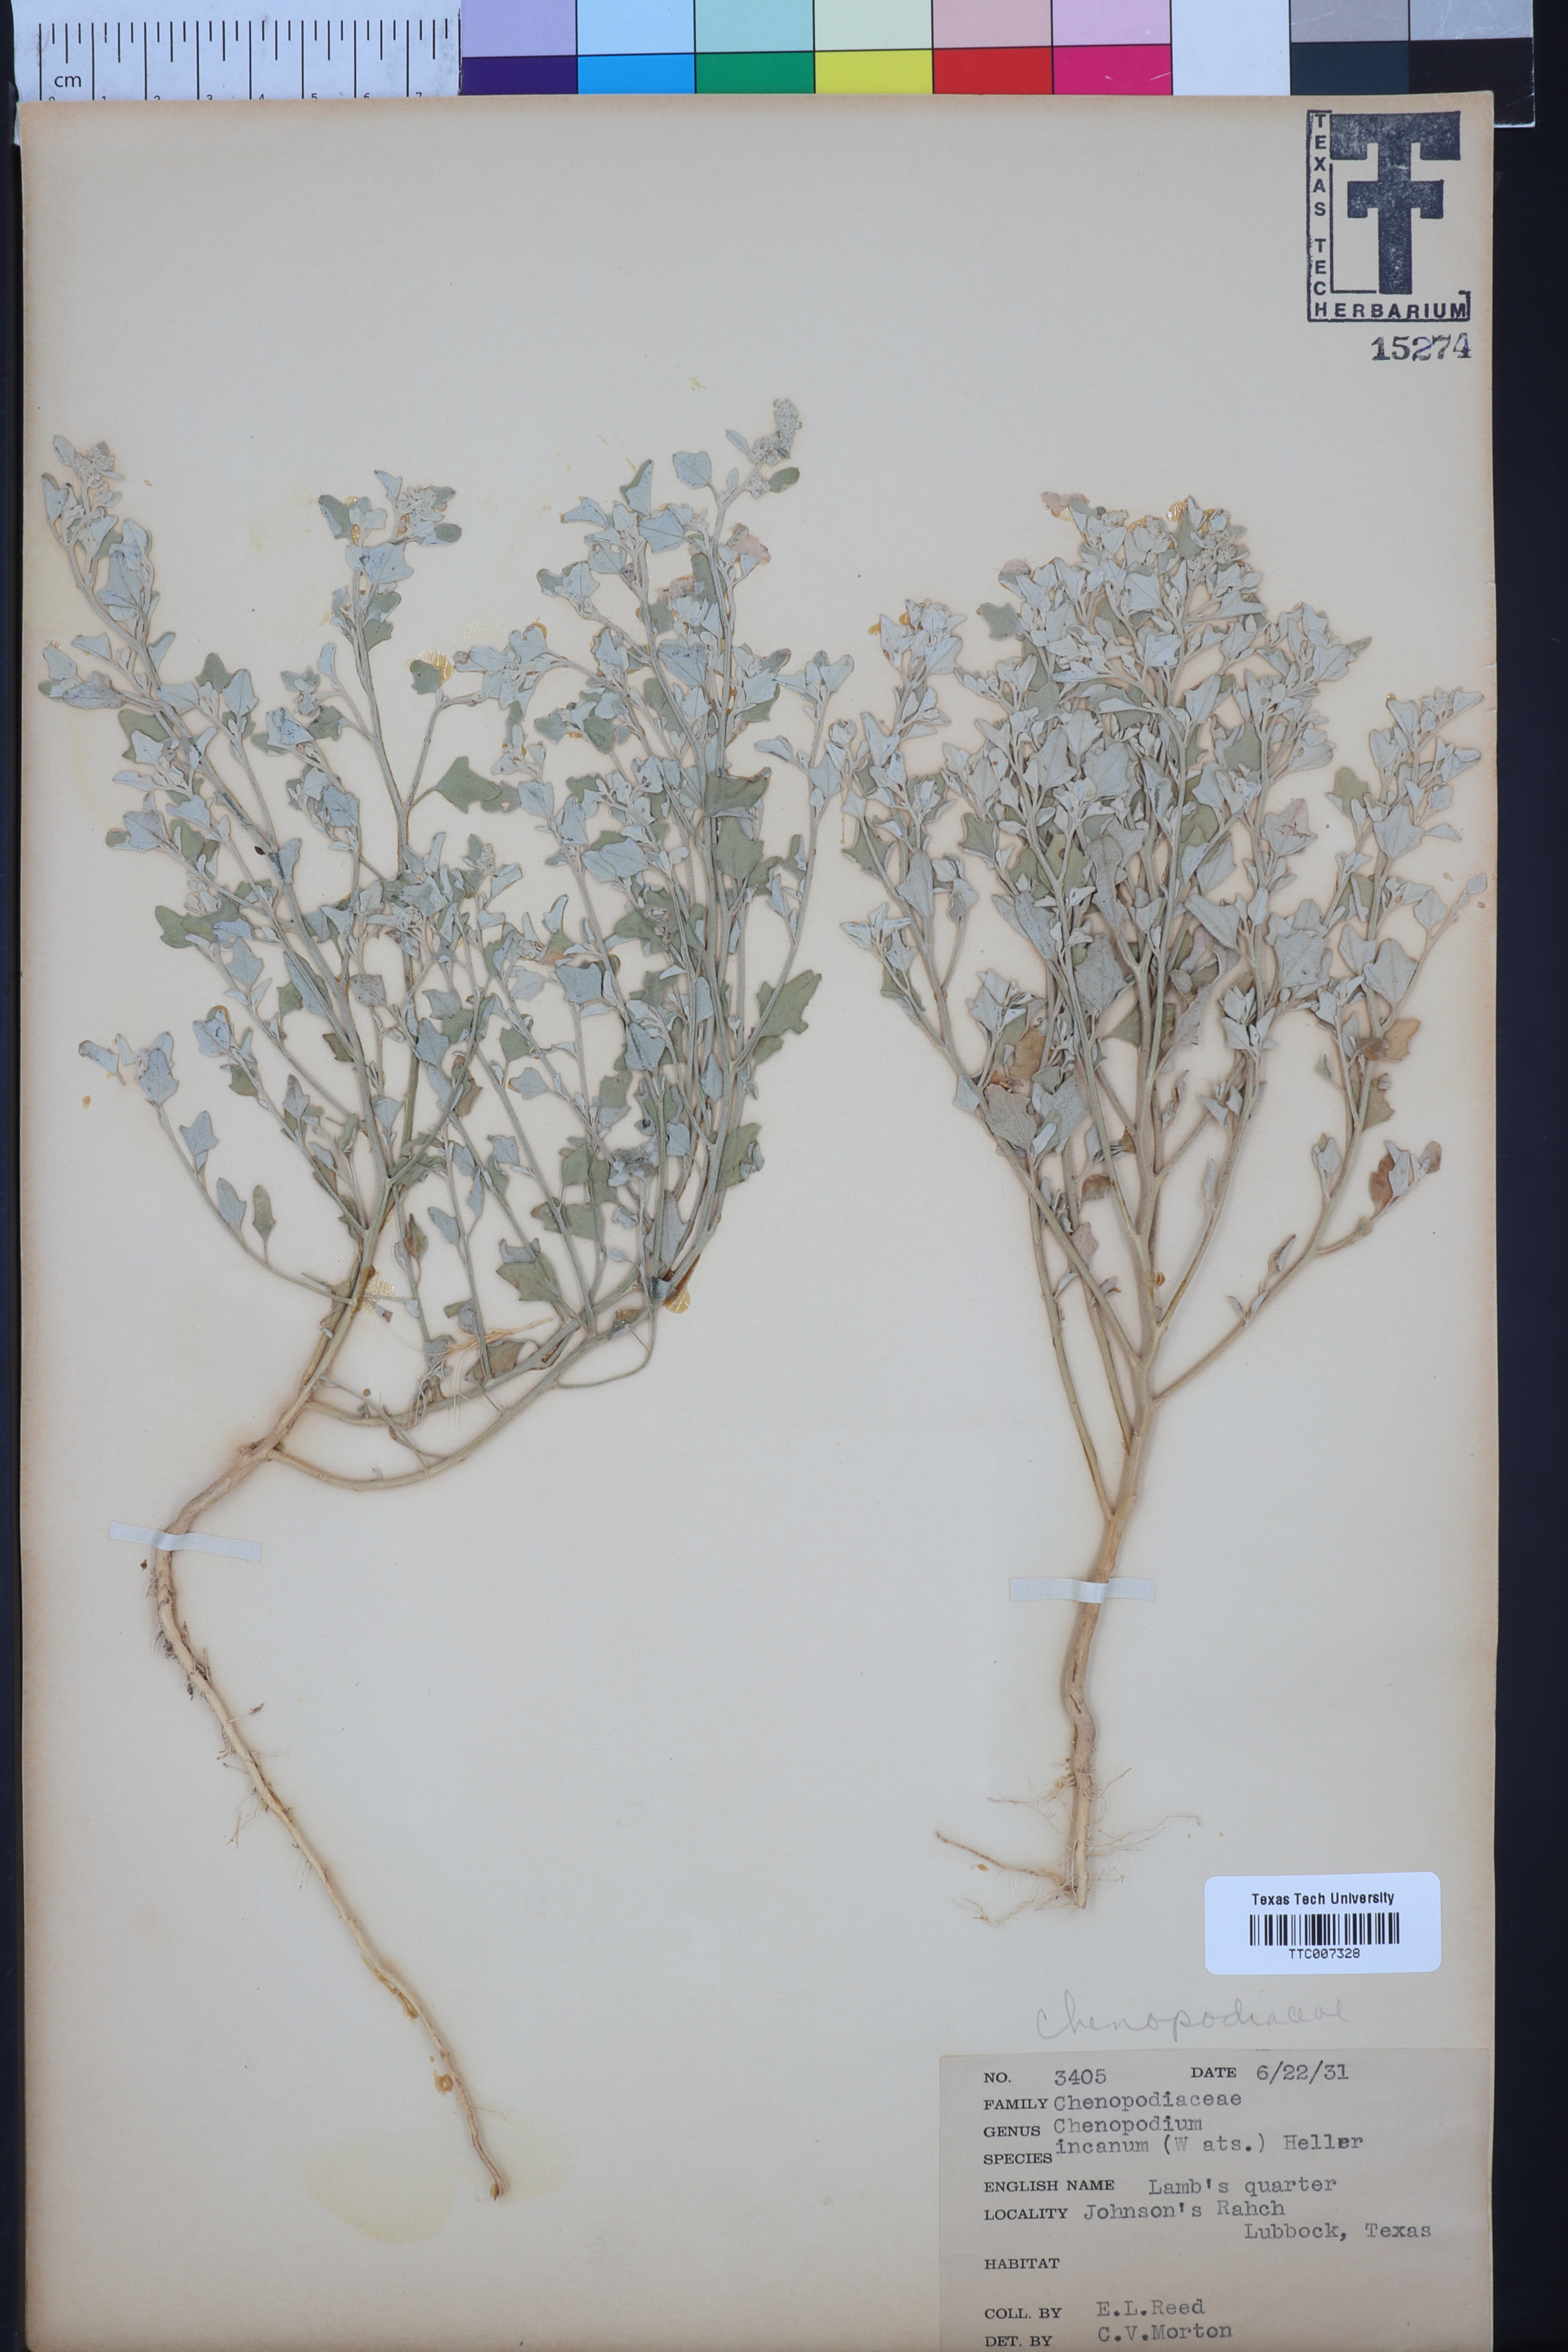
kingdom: Plantae
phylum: Tracheophyta
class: Magnoliopsida
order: Caryophyllales
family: Amaranthaceae
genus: Chenopodium
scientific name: Chenopodium incanum
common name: Hoary goosefoot
